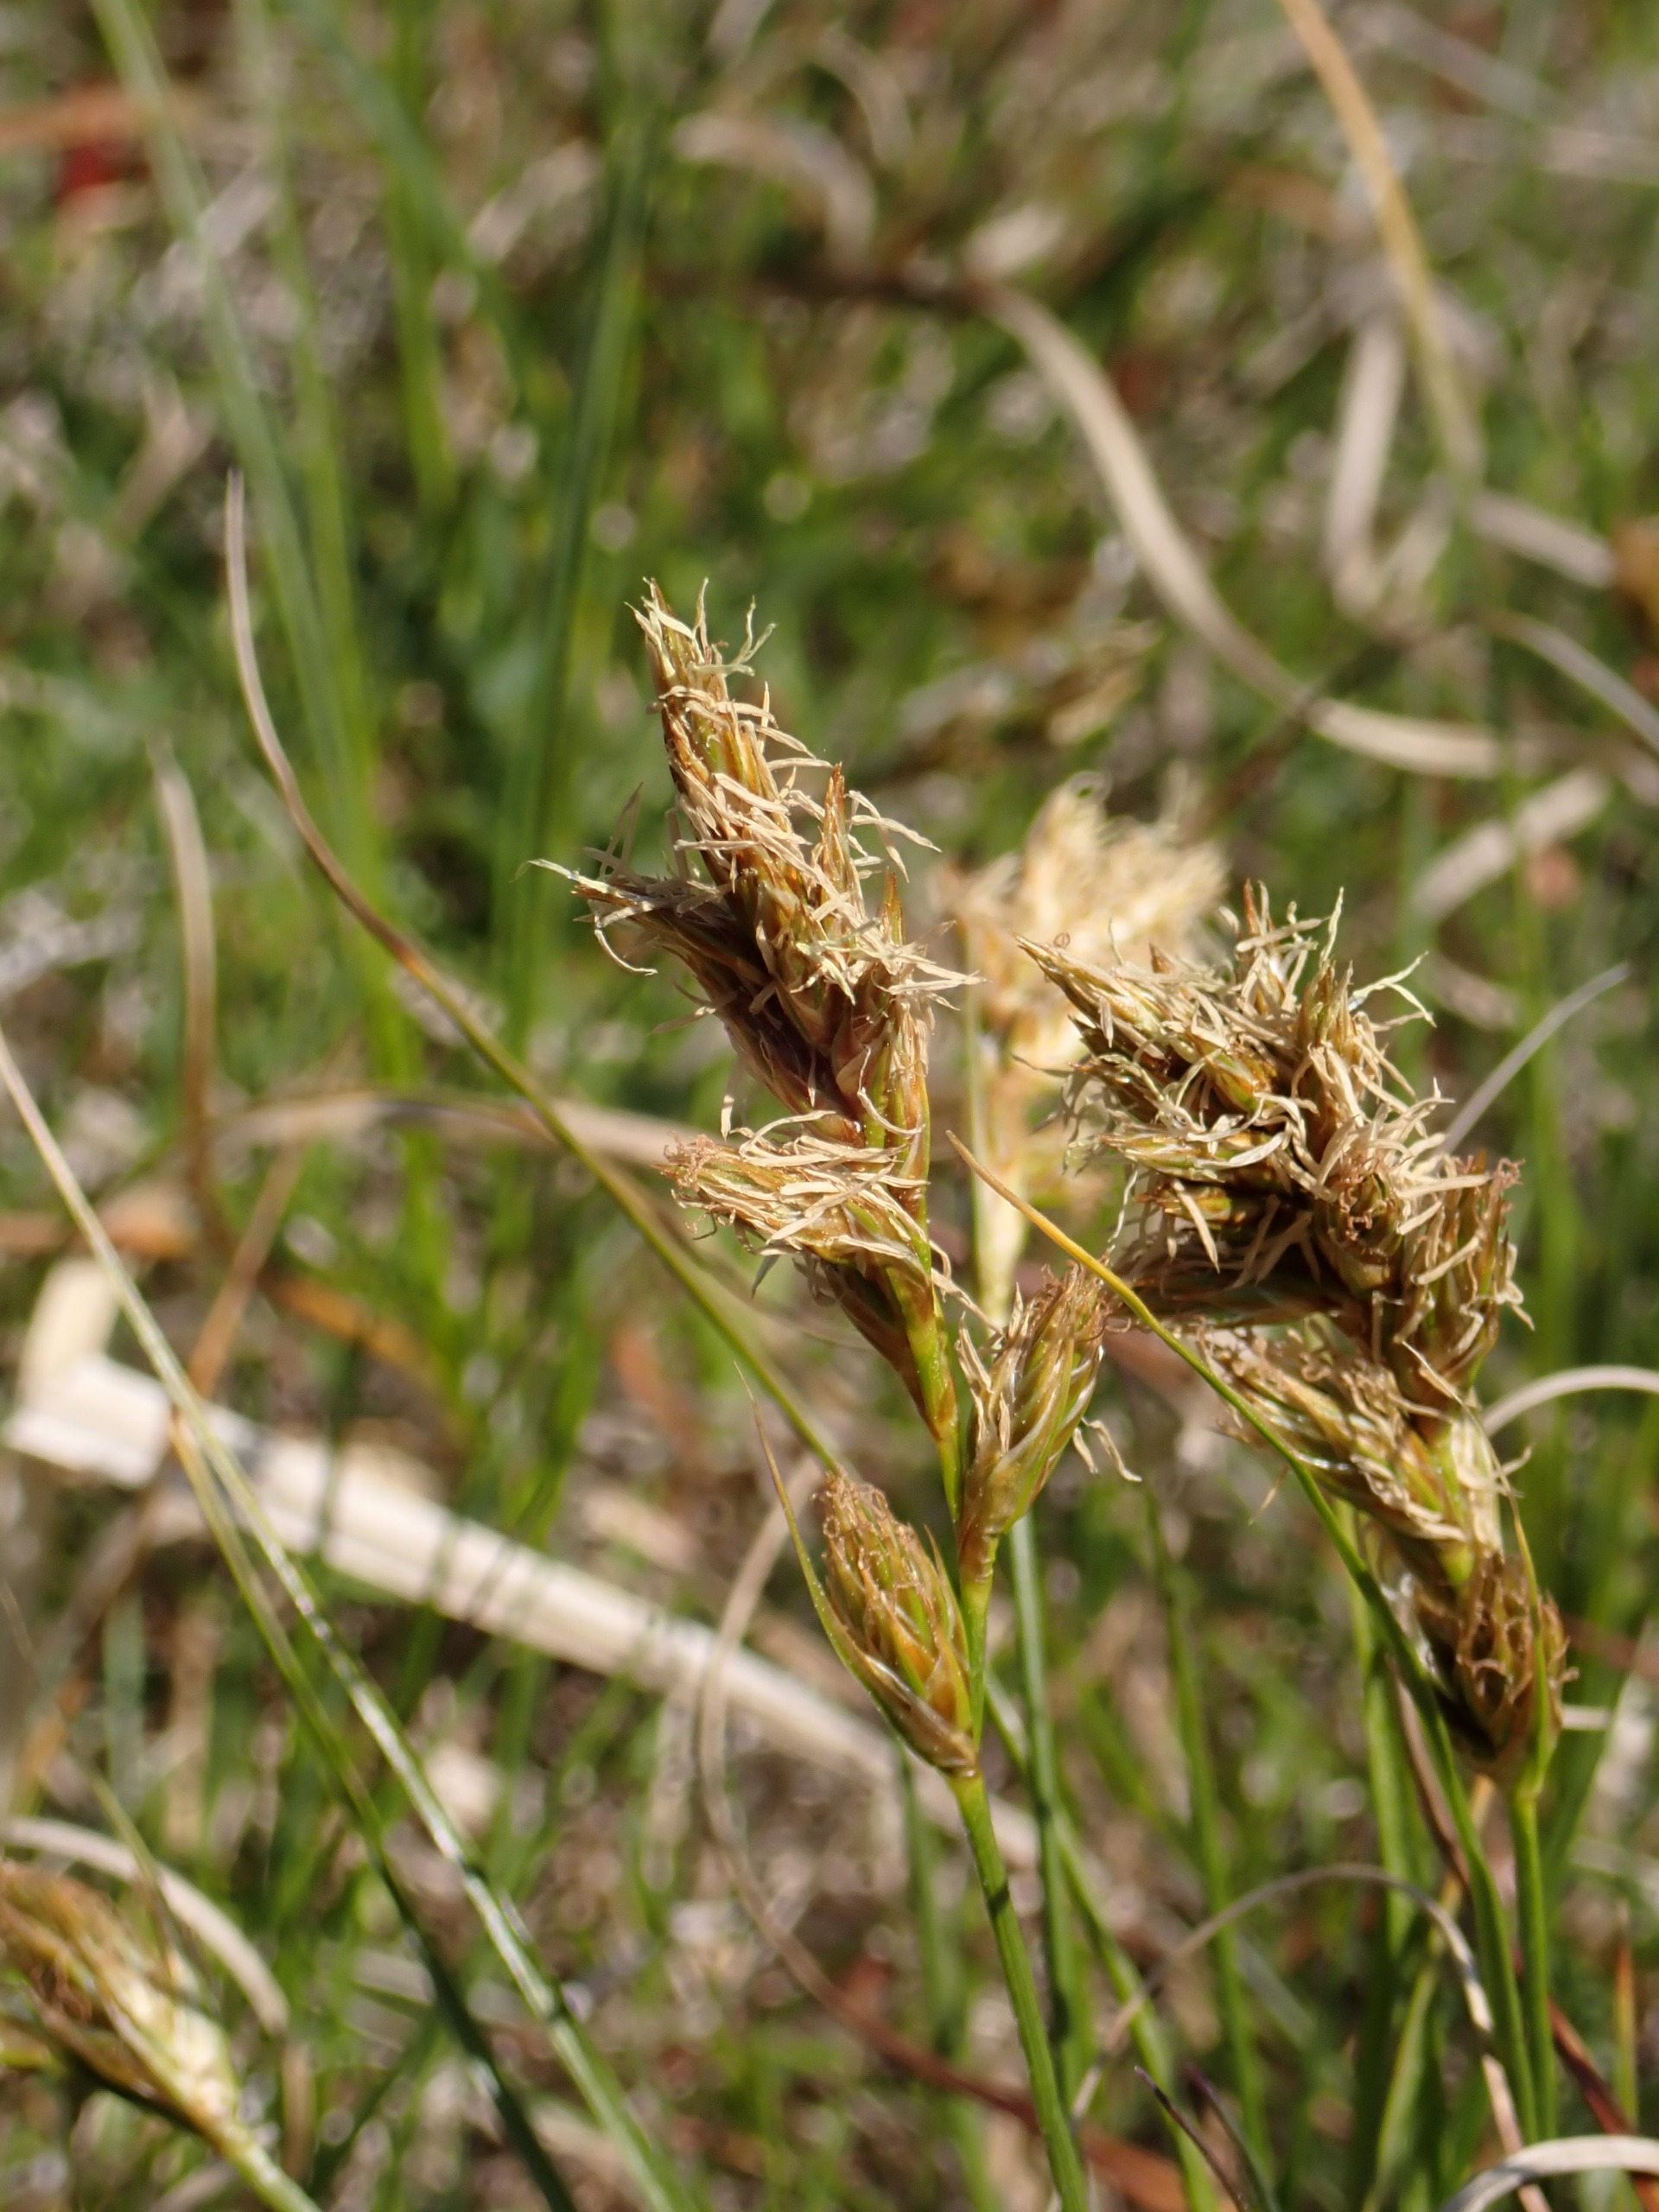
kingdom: Plantae
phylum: Tracheophyta
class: Liliopsida
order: Poales
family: Cyperaceae
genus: Carex
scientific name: Carex arenaria
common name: Sand-star
